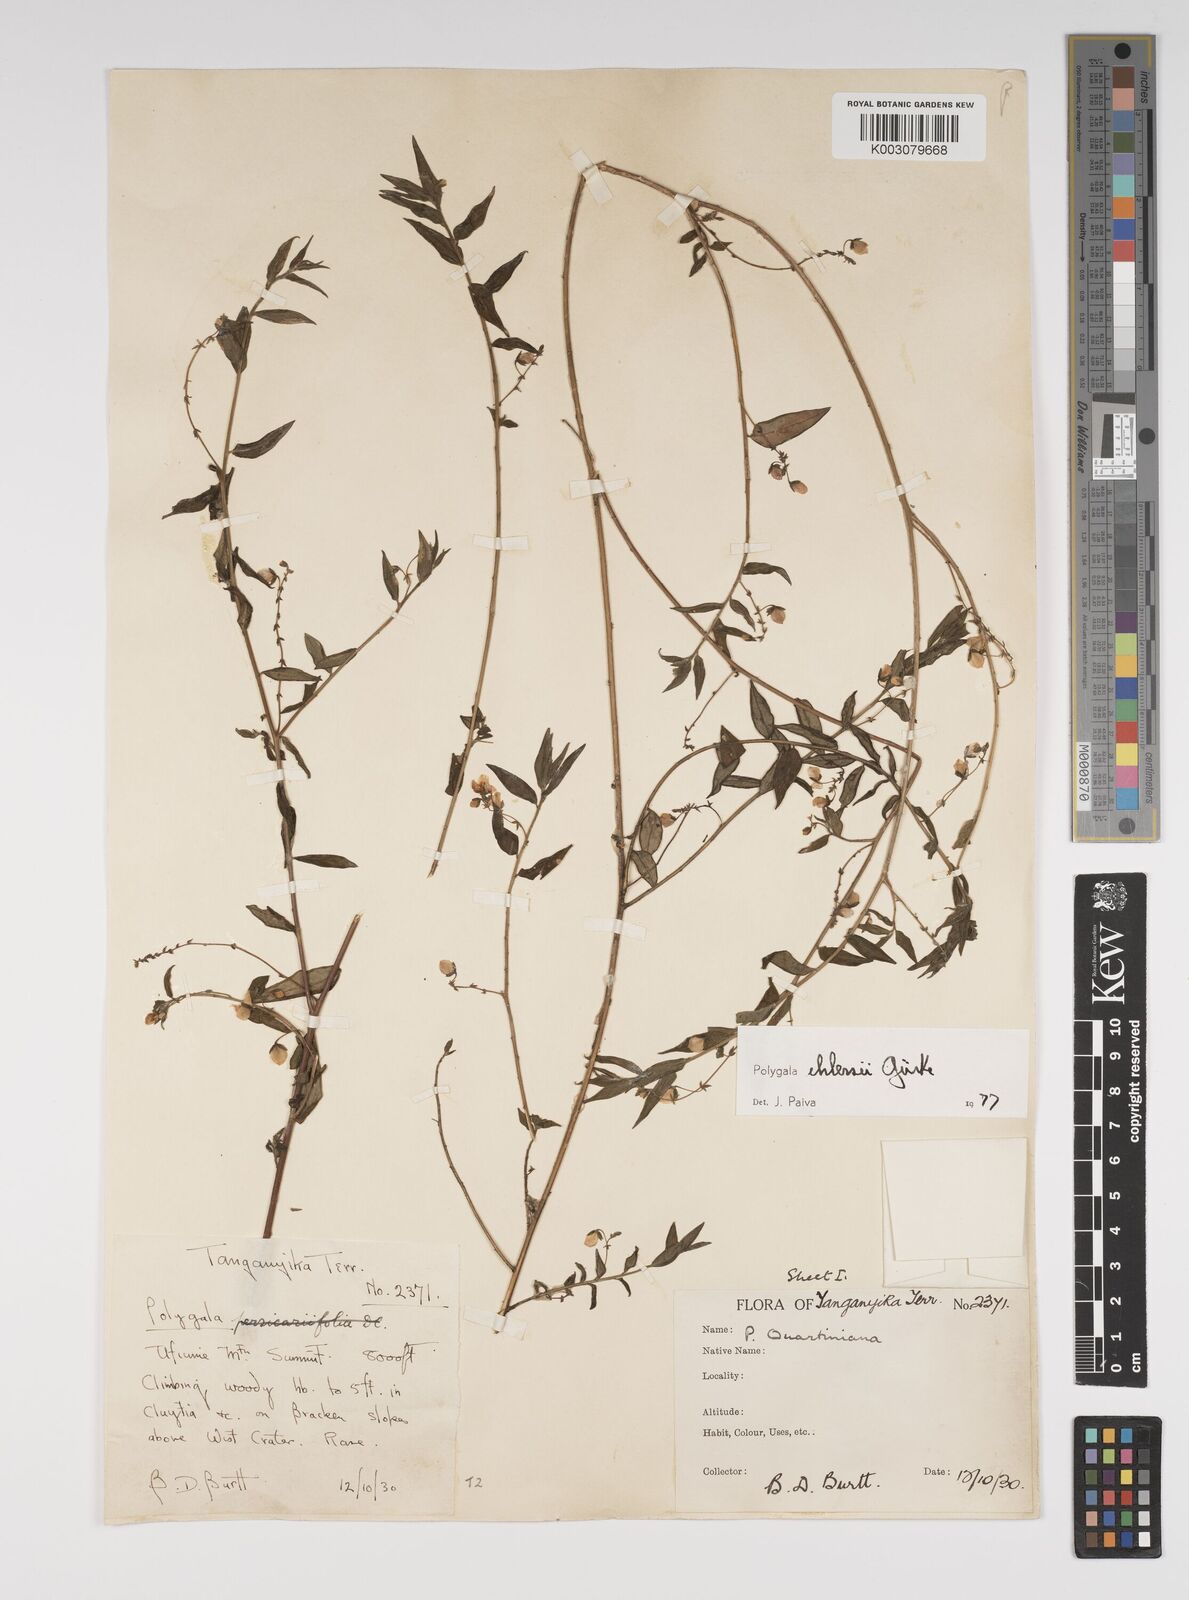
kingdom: Plantae
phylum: Tracheophyta
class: Magnoliopsida
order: Fabales
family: Polygalaceae
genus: Polygala
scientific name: Polygala ehlersii
